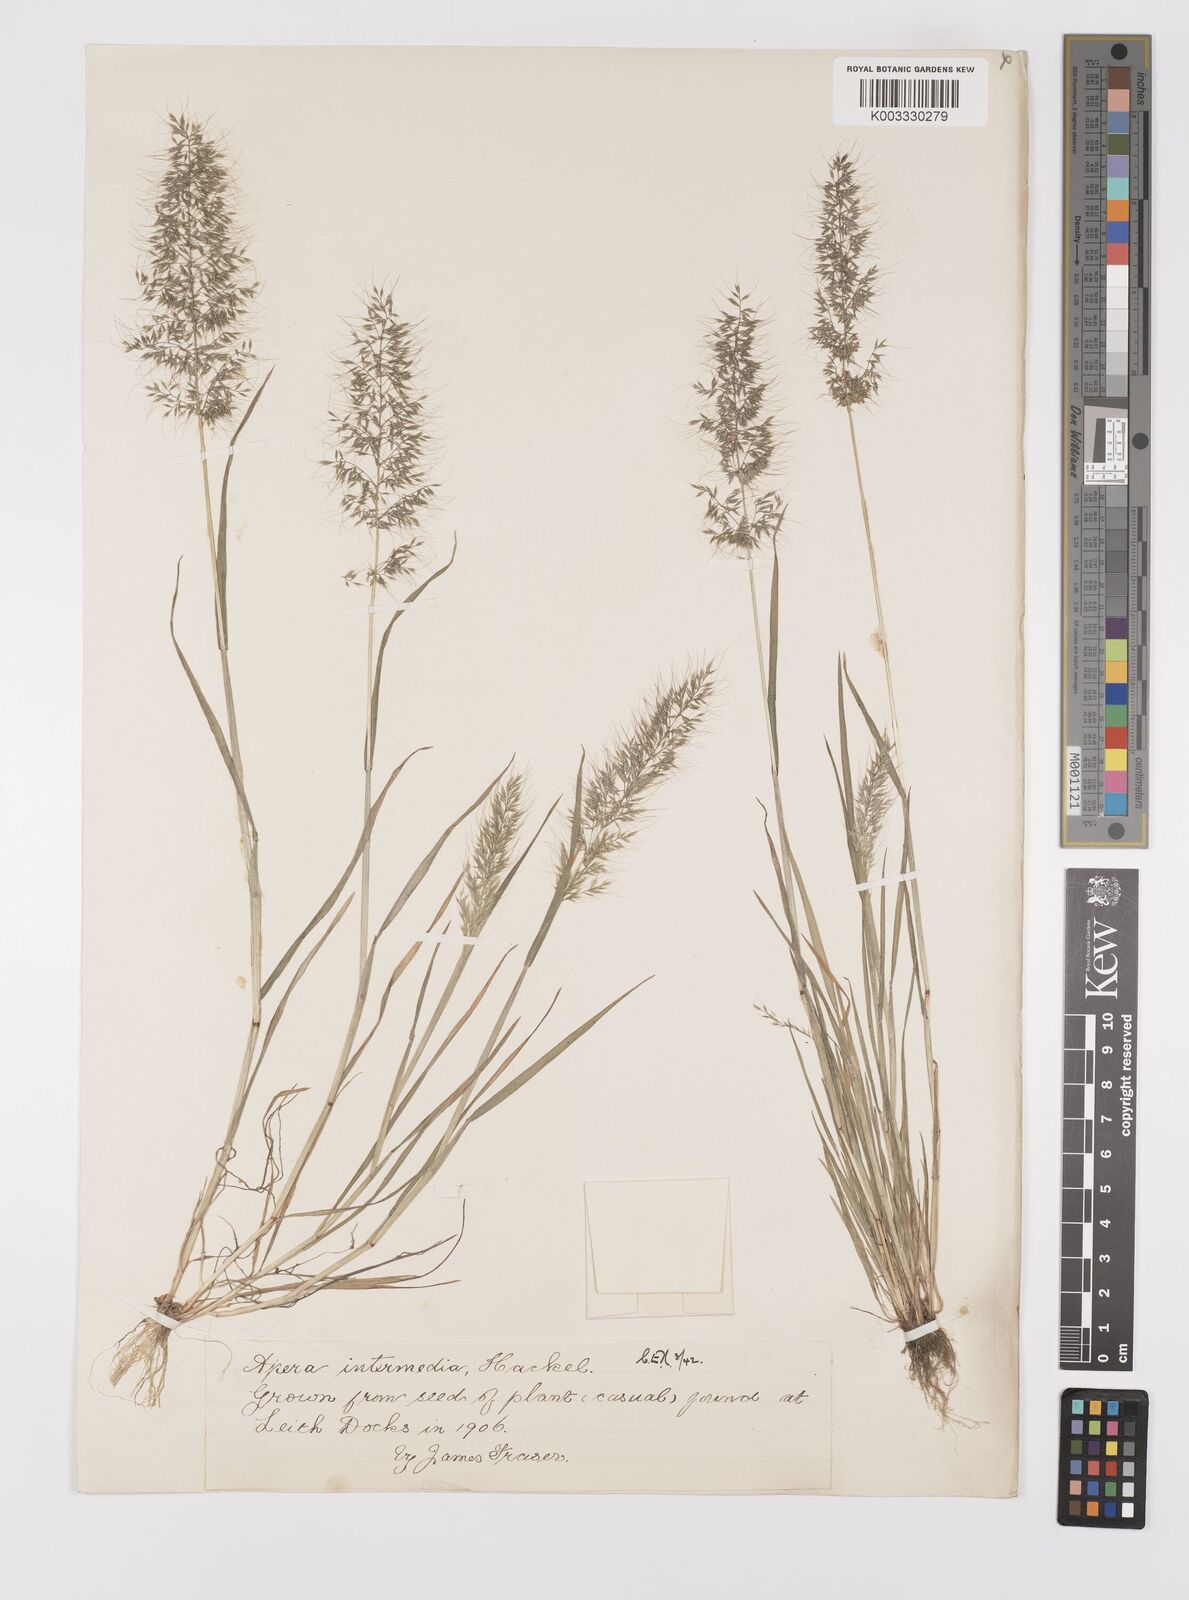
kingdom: Plantae
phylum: Tracheophyta
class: Liliopsida
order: Poales
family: Poaceae
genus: Apera
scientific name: Apera intermedia
